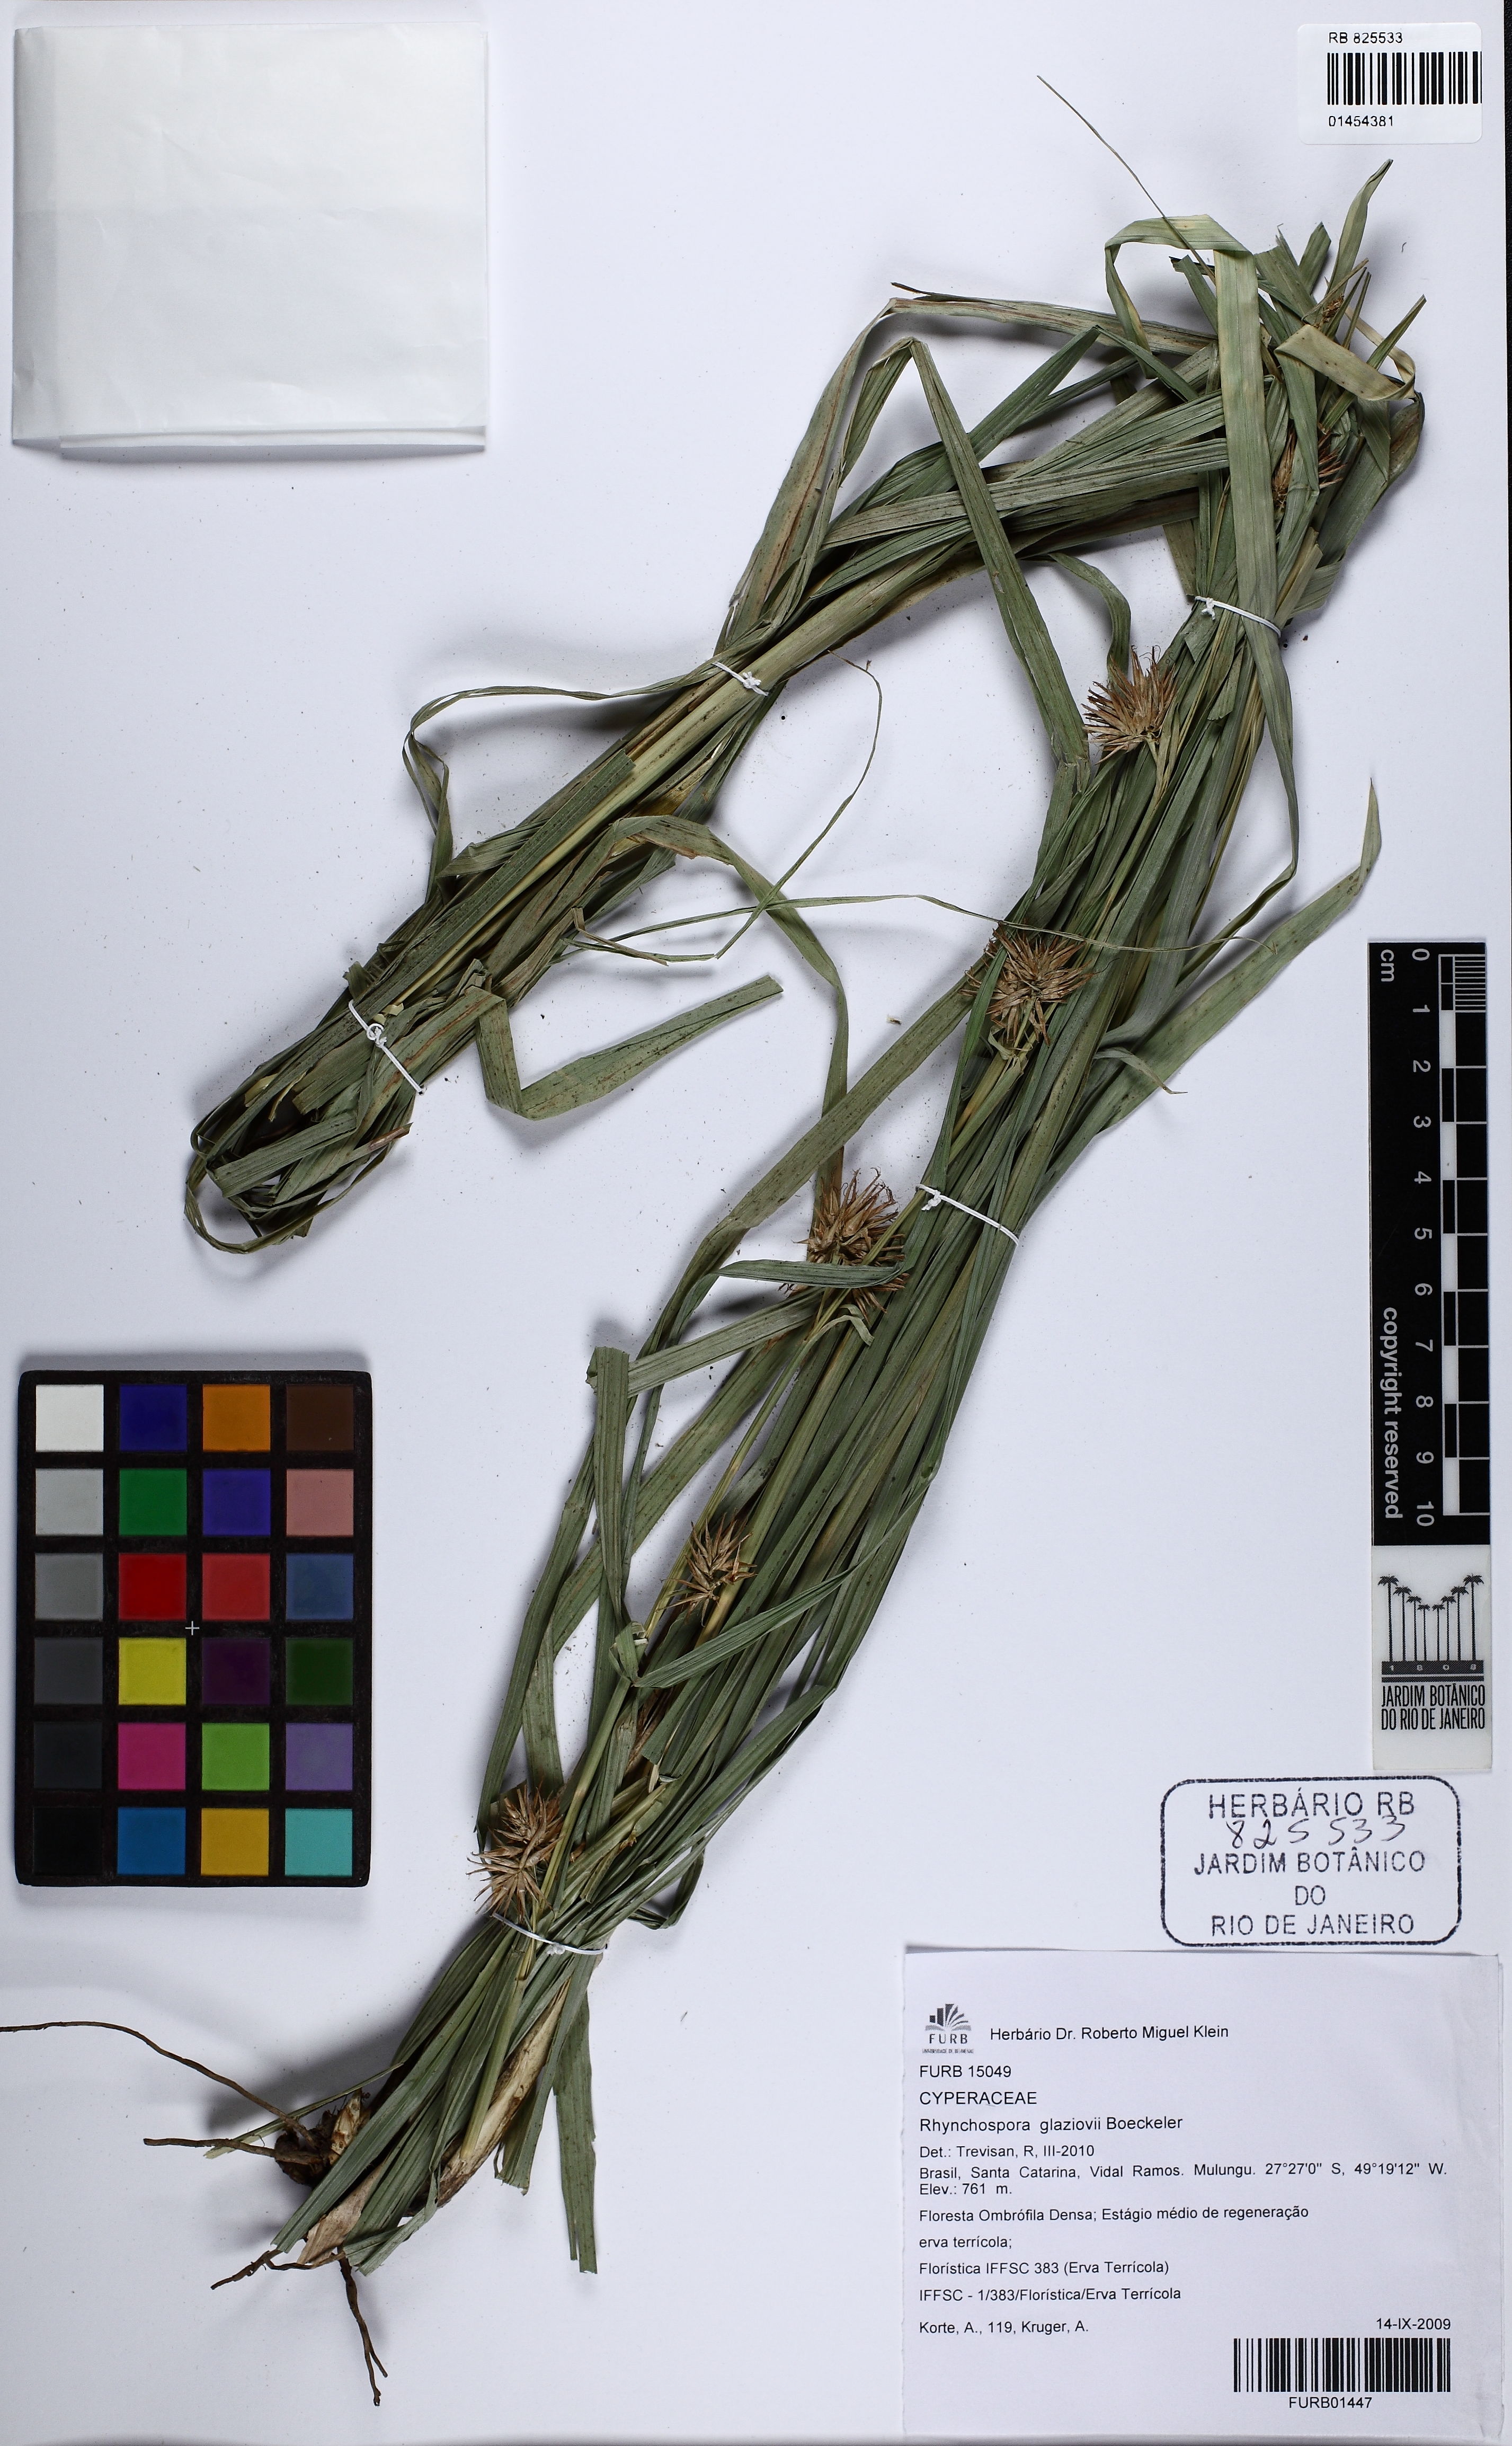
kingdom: Plantae
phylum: Tracheophyta
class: Liliopsida
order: Poales
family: Cyperaceae
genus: Rhynchospora
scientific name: Rhynchospora glaziovii
